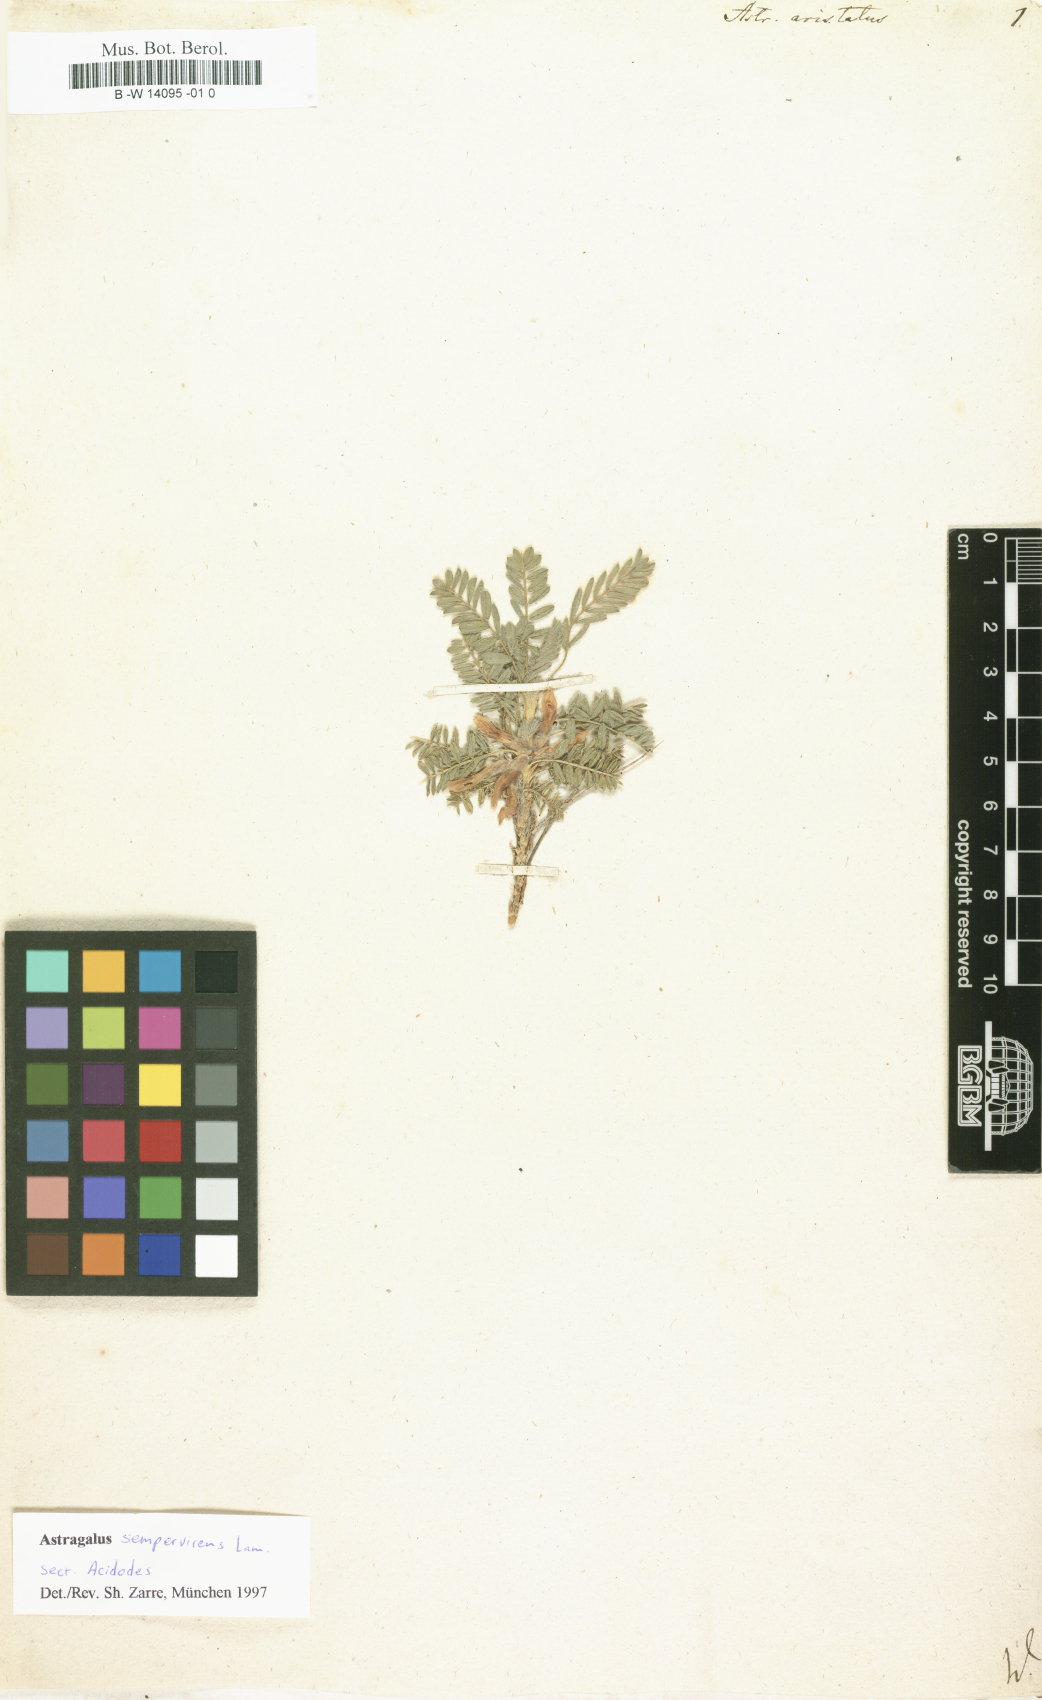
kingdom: Plantae
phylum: Tracheophyta
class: Magnoliopsida
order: Fabales
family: Fabaceae
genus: Astragalus
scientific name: Astragalus
